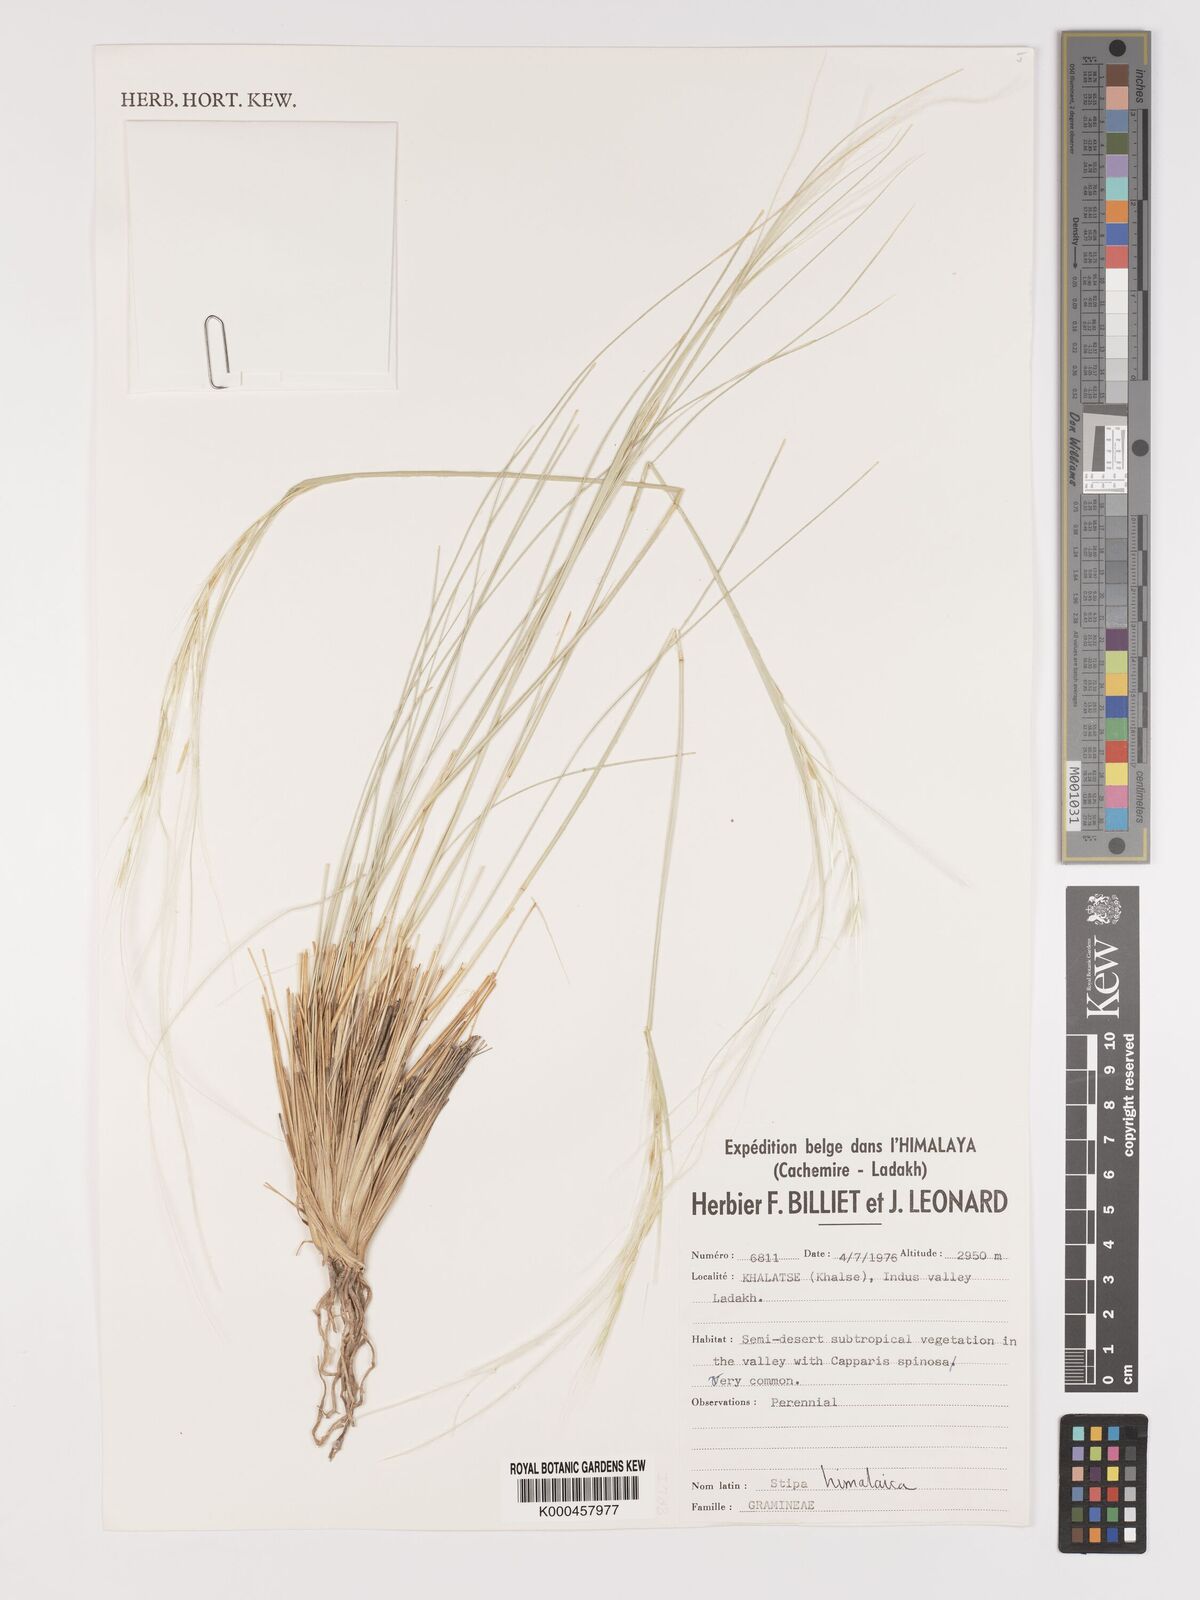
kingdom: Plantae
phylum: Tracheophyta
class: Liliopsida
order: Poales
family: Poaceae
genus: Stipa
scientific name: Stipa himalaica
